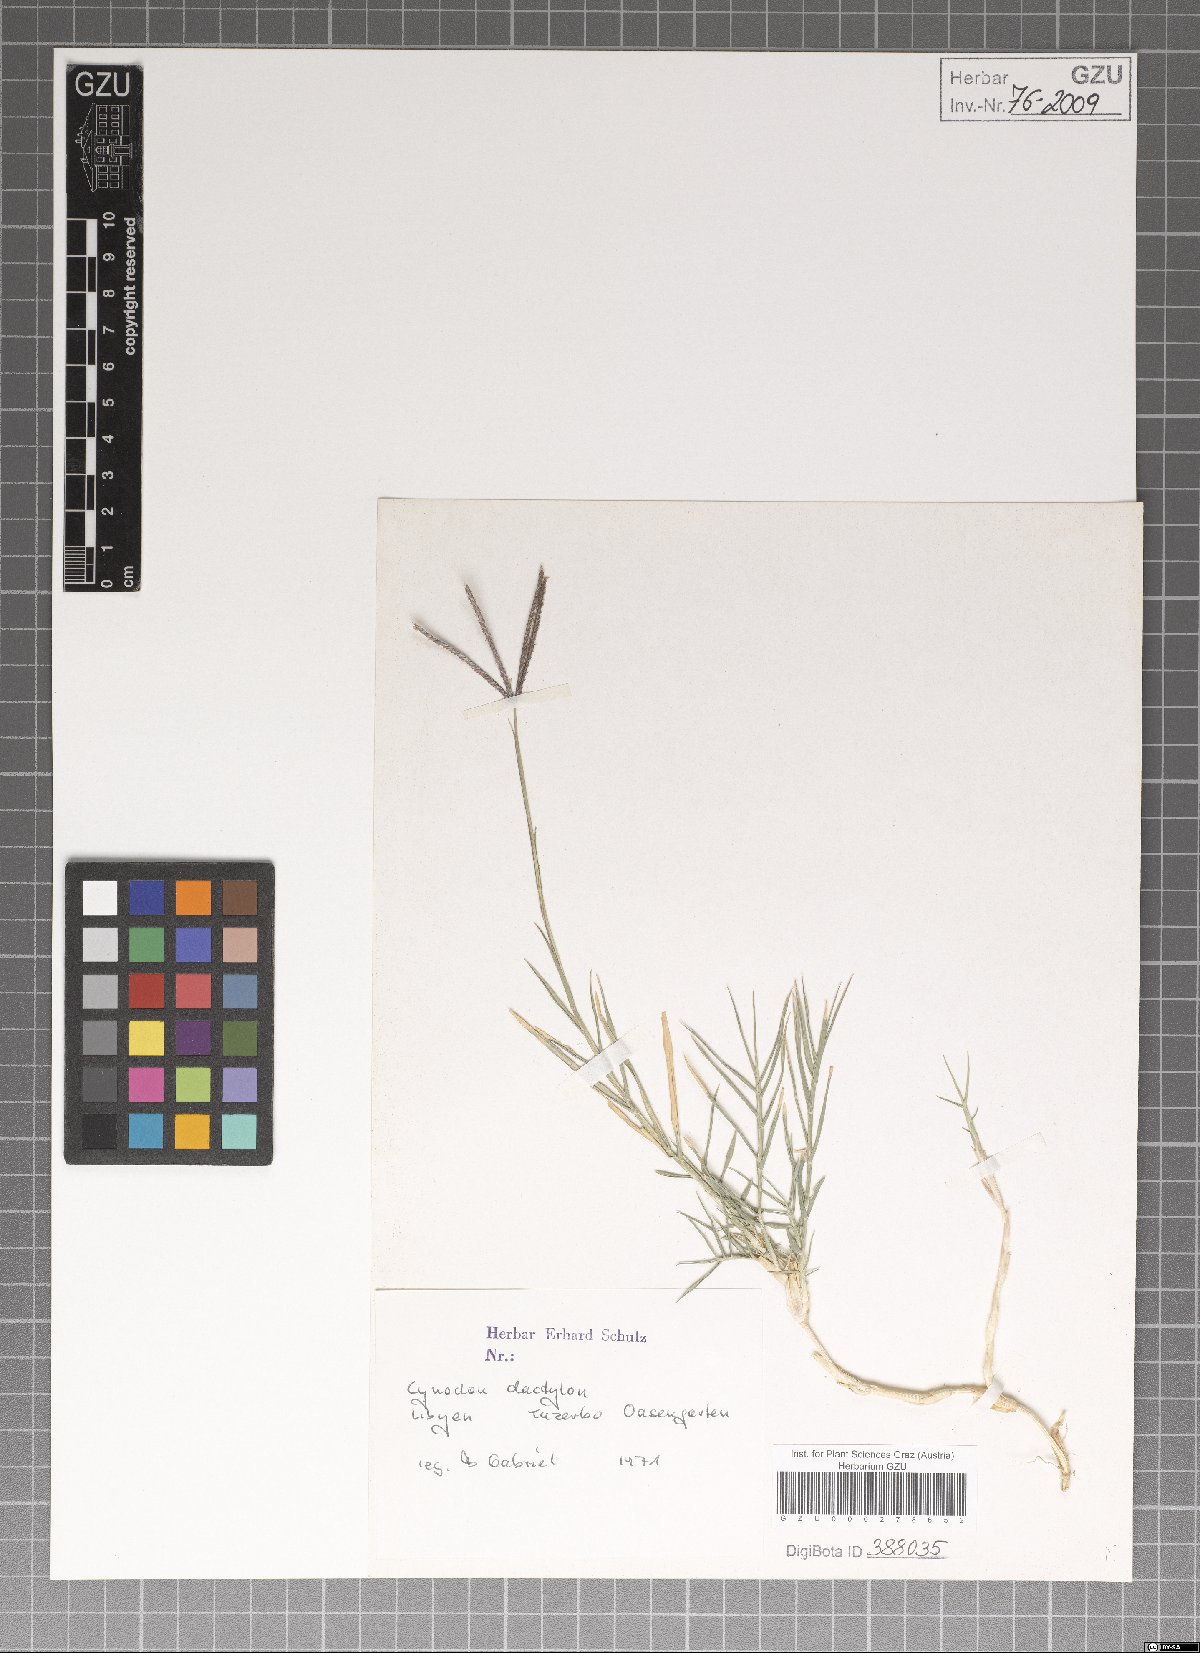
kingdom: Plantae
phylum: Tracheophyta
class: Liliopsida
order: Poales
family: Poaceae
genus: Cynodon
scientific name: Cynodon dactylon
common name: Bermuda grass
